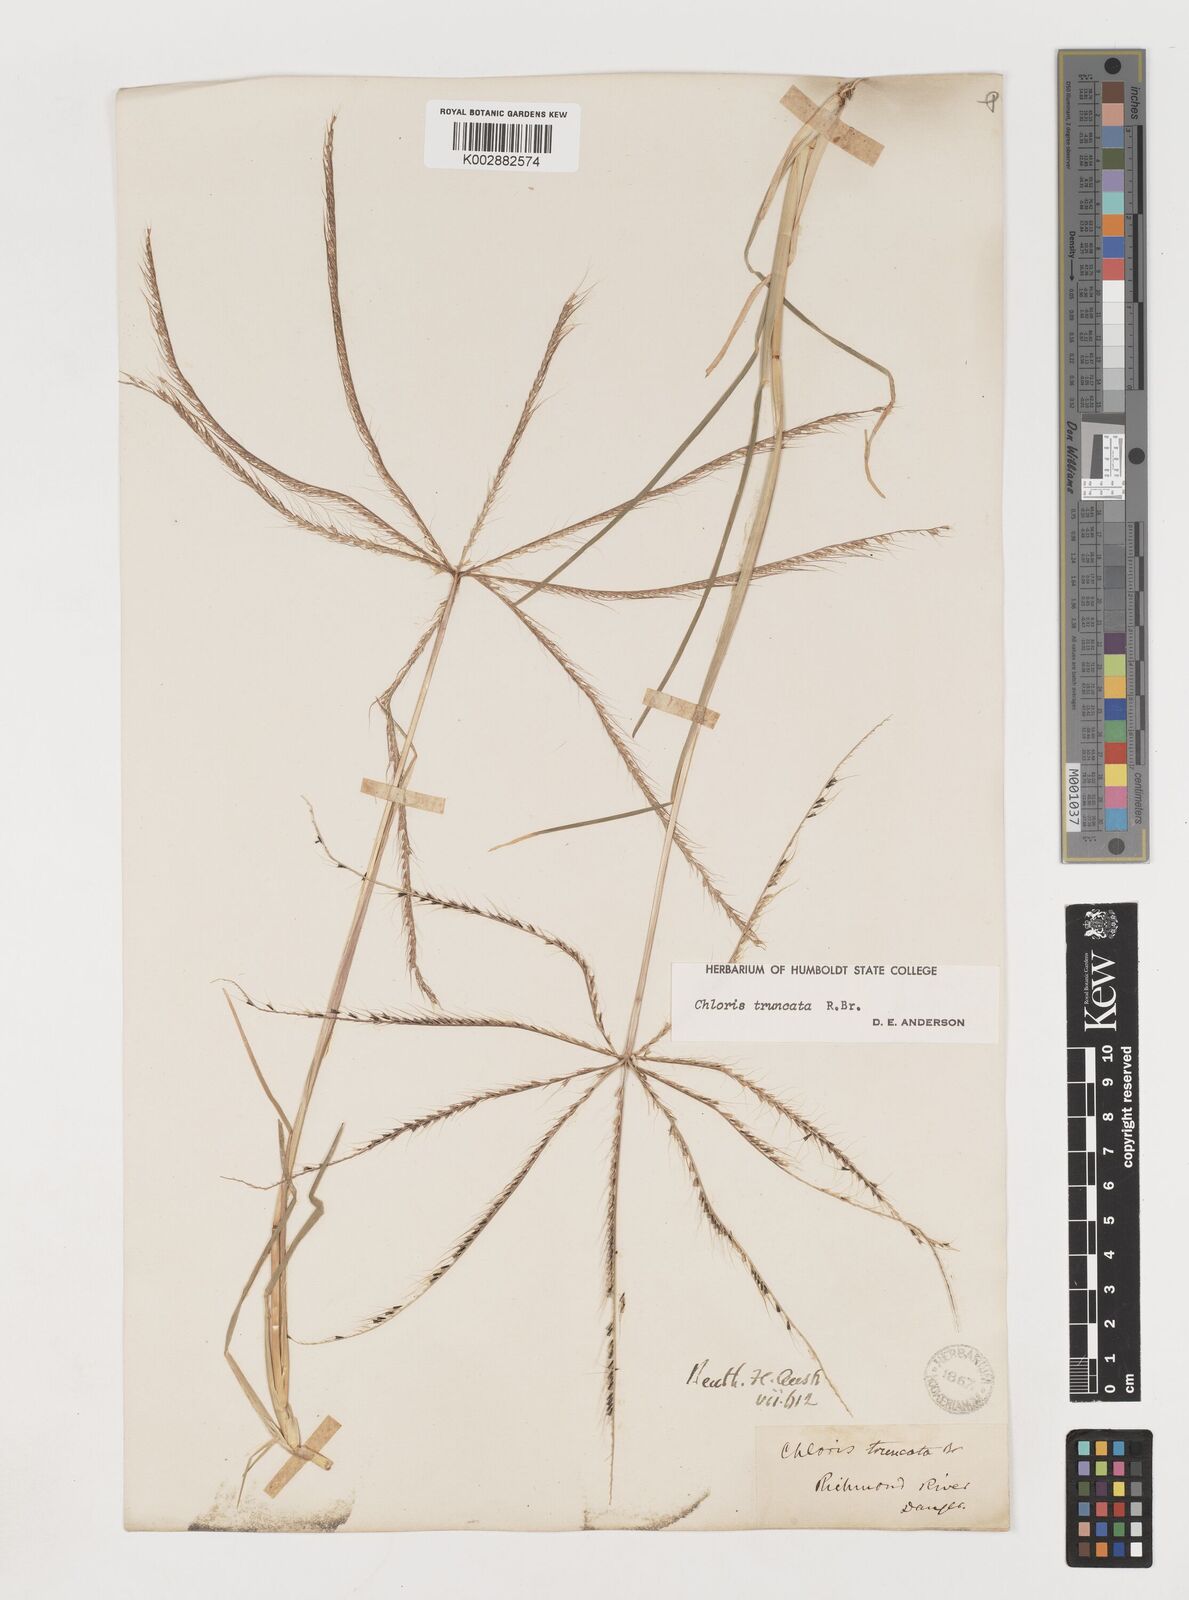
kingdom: Plantae
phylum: Tracheophyta
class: Liliopsida
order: Poales
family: Poaceae
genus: Chloris
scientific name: Chloris truncata
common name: Windmill-grass
